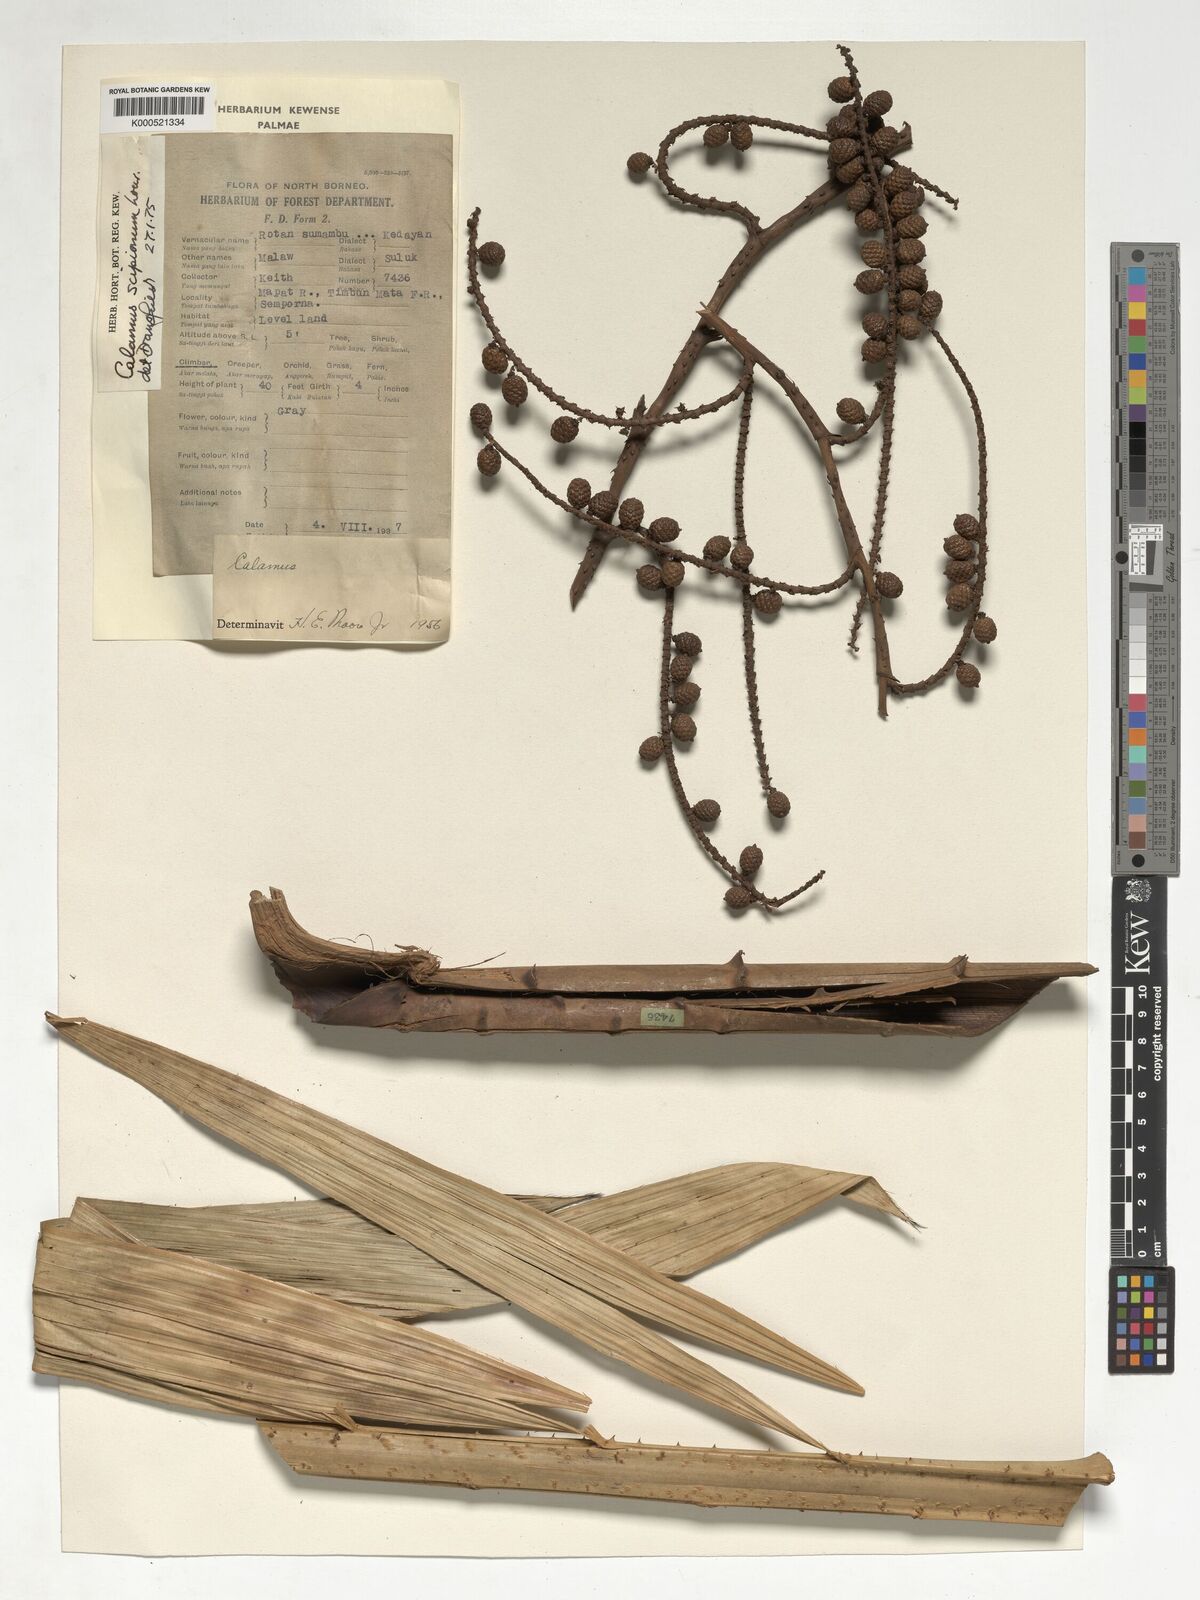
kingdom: Plantae
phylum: Tracheophyta
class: Liliopsida
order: Arecales
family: Arecaceae
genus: Calamus
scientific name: Calamus scipionum
